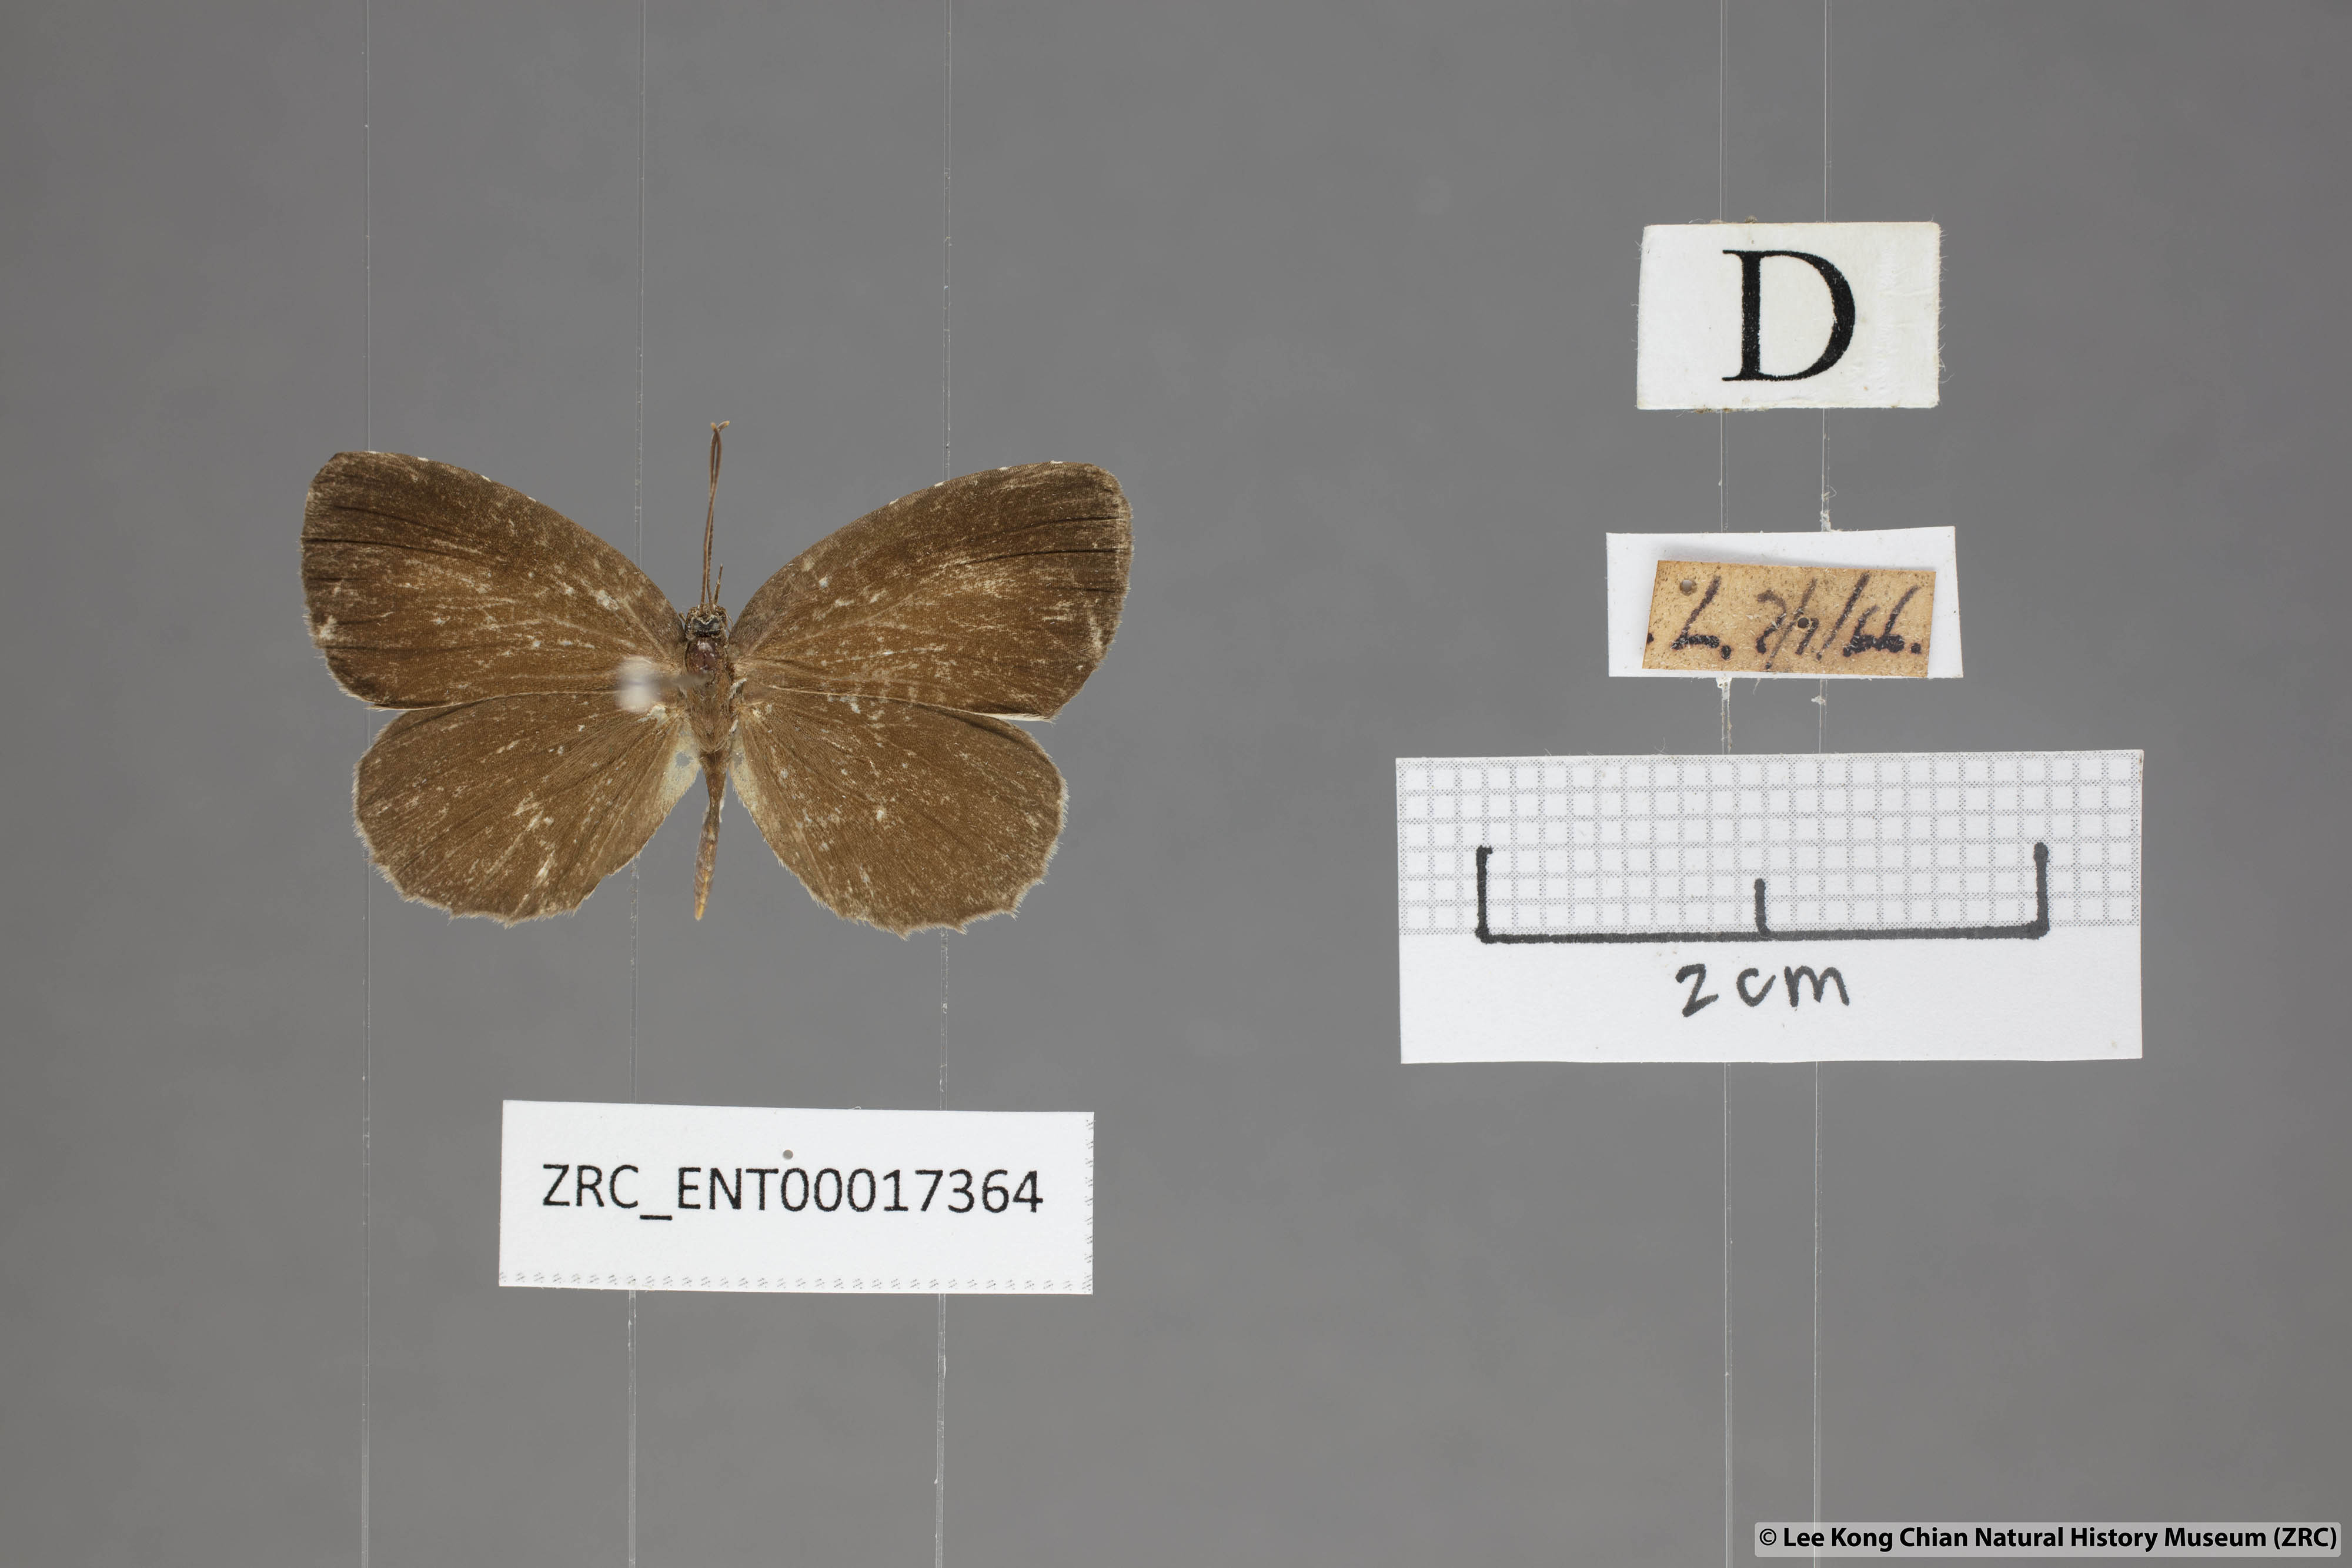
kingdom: Animalia
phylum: Arthropoda
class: Insecta
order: Lepidoptera
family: Lycaenidae
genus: Allotinus
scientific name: Allotinus unicolor
